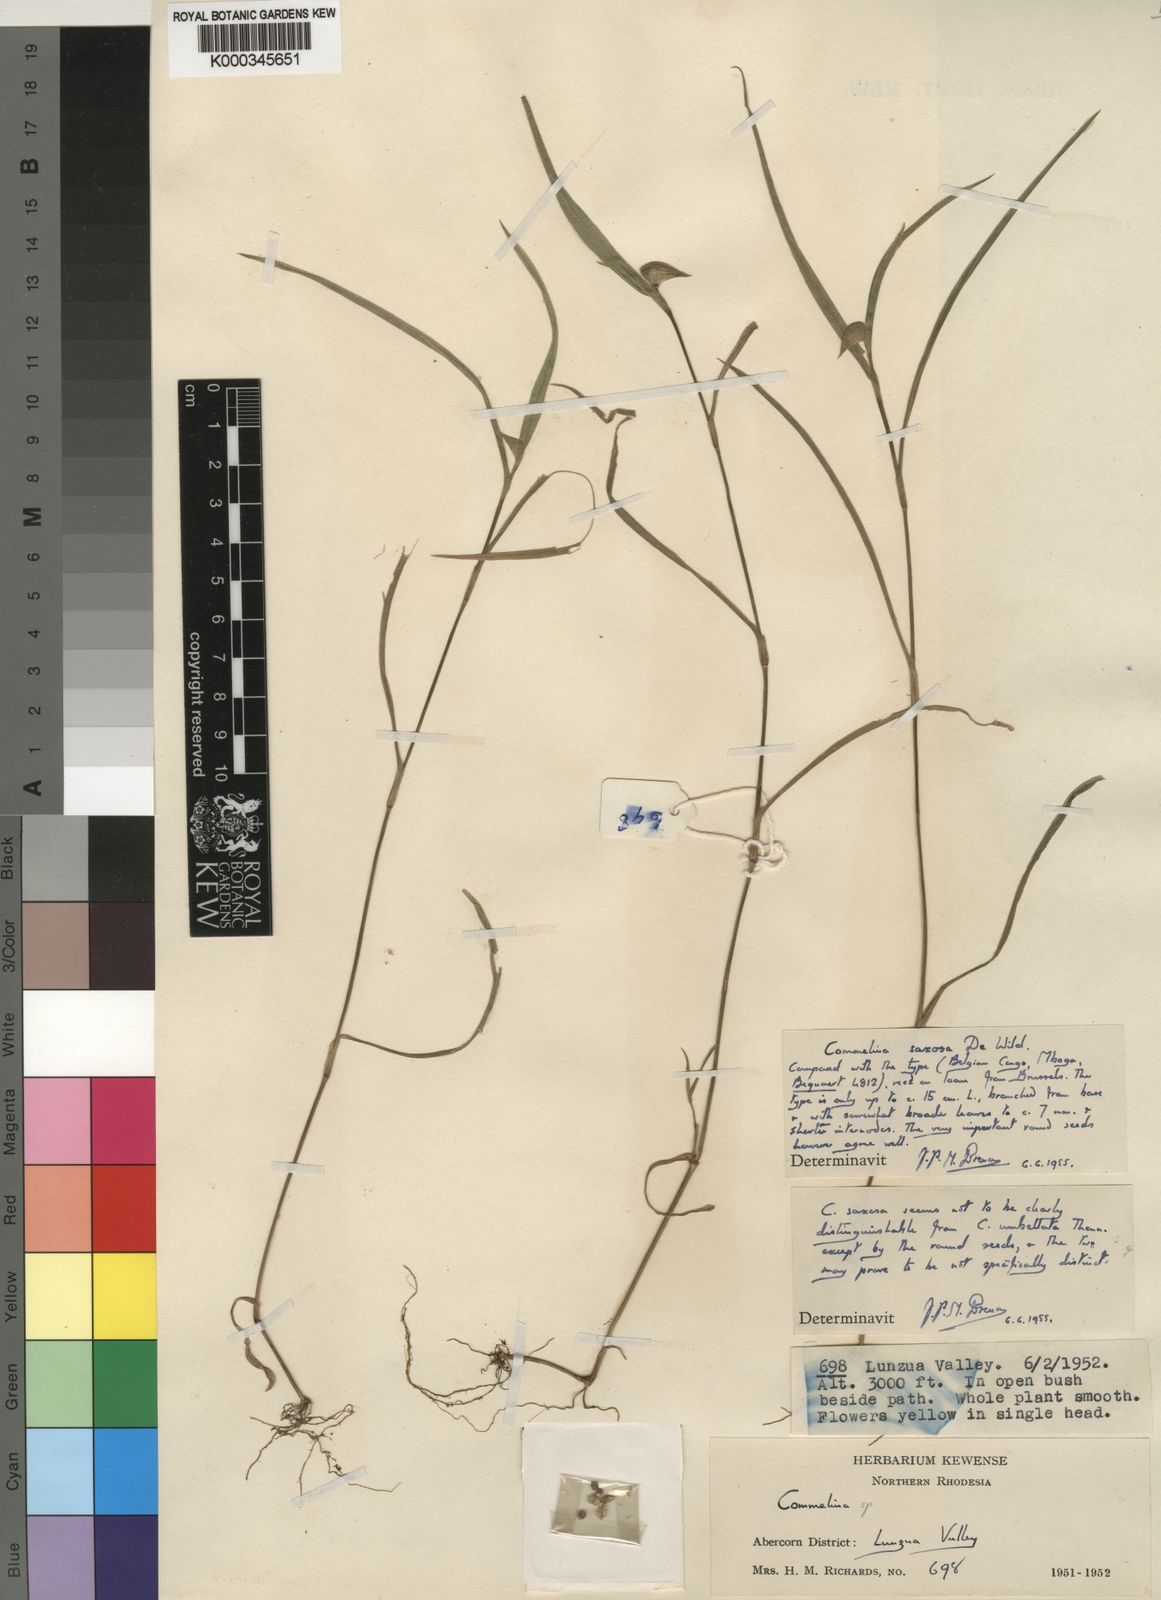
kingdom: Plantae
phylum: Tracheophyta
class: Liliopsida
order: Commelinales
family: Commelinaceae
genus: Commelina
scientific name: Commelina saxosa
